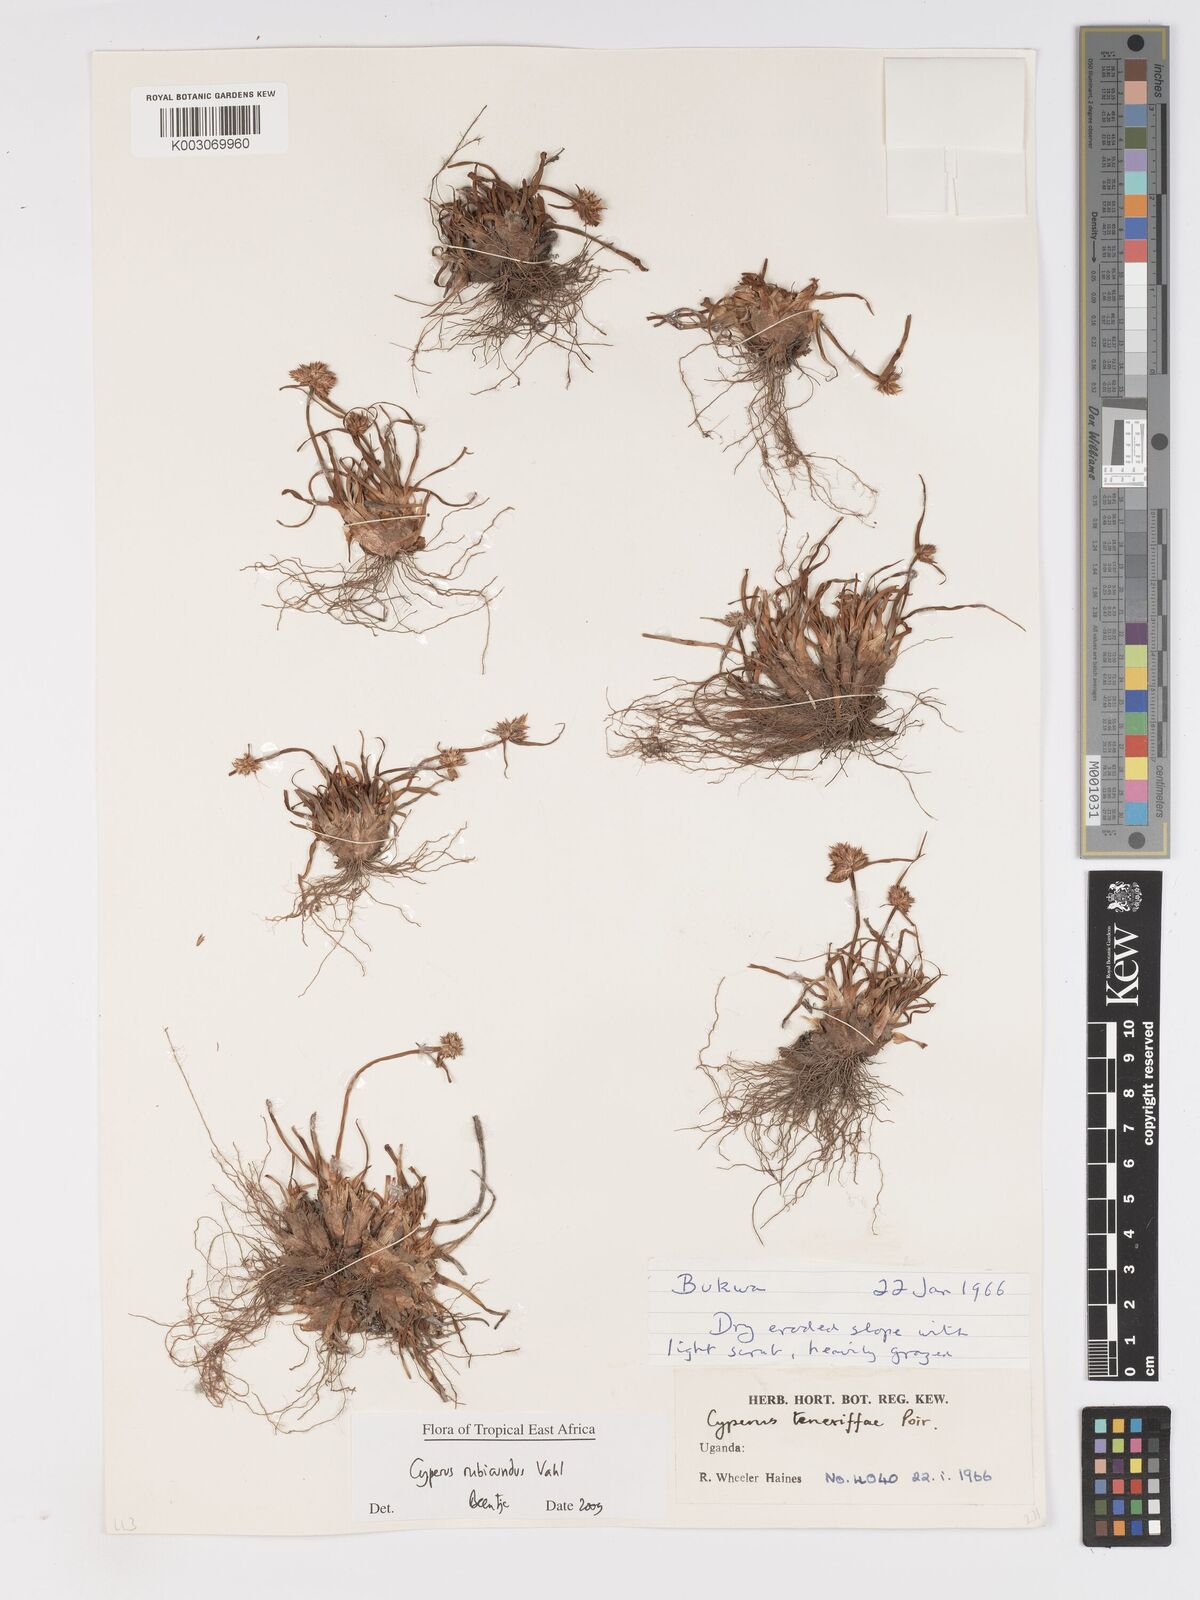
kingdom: Plantae
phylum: Tracheophyta
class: Liliopsida
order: Poales
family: Cyperaceae
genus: Cyperus
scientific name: Cyperus rubicundus
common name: Coco-grass
